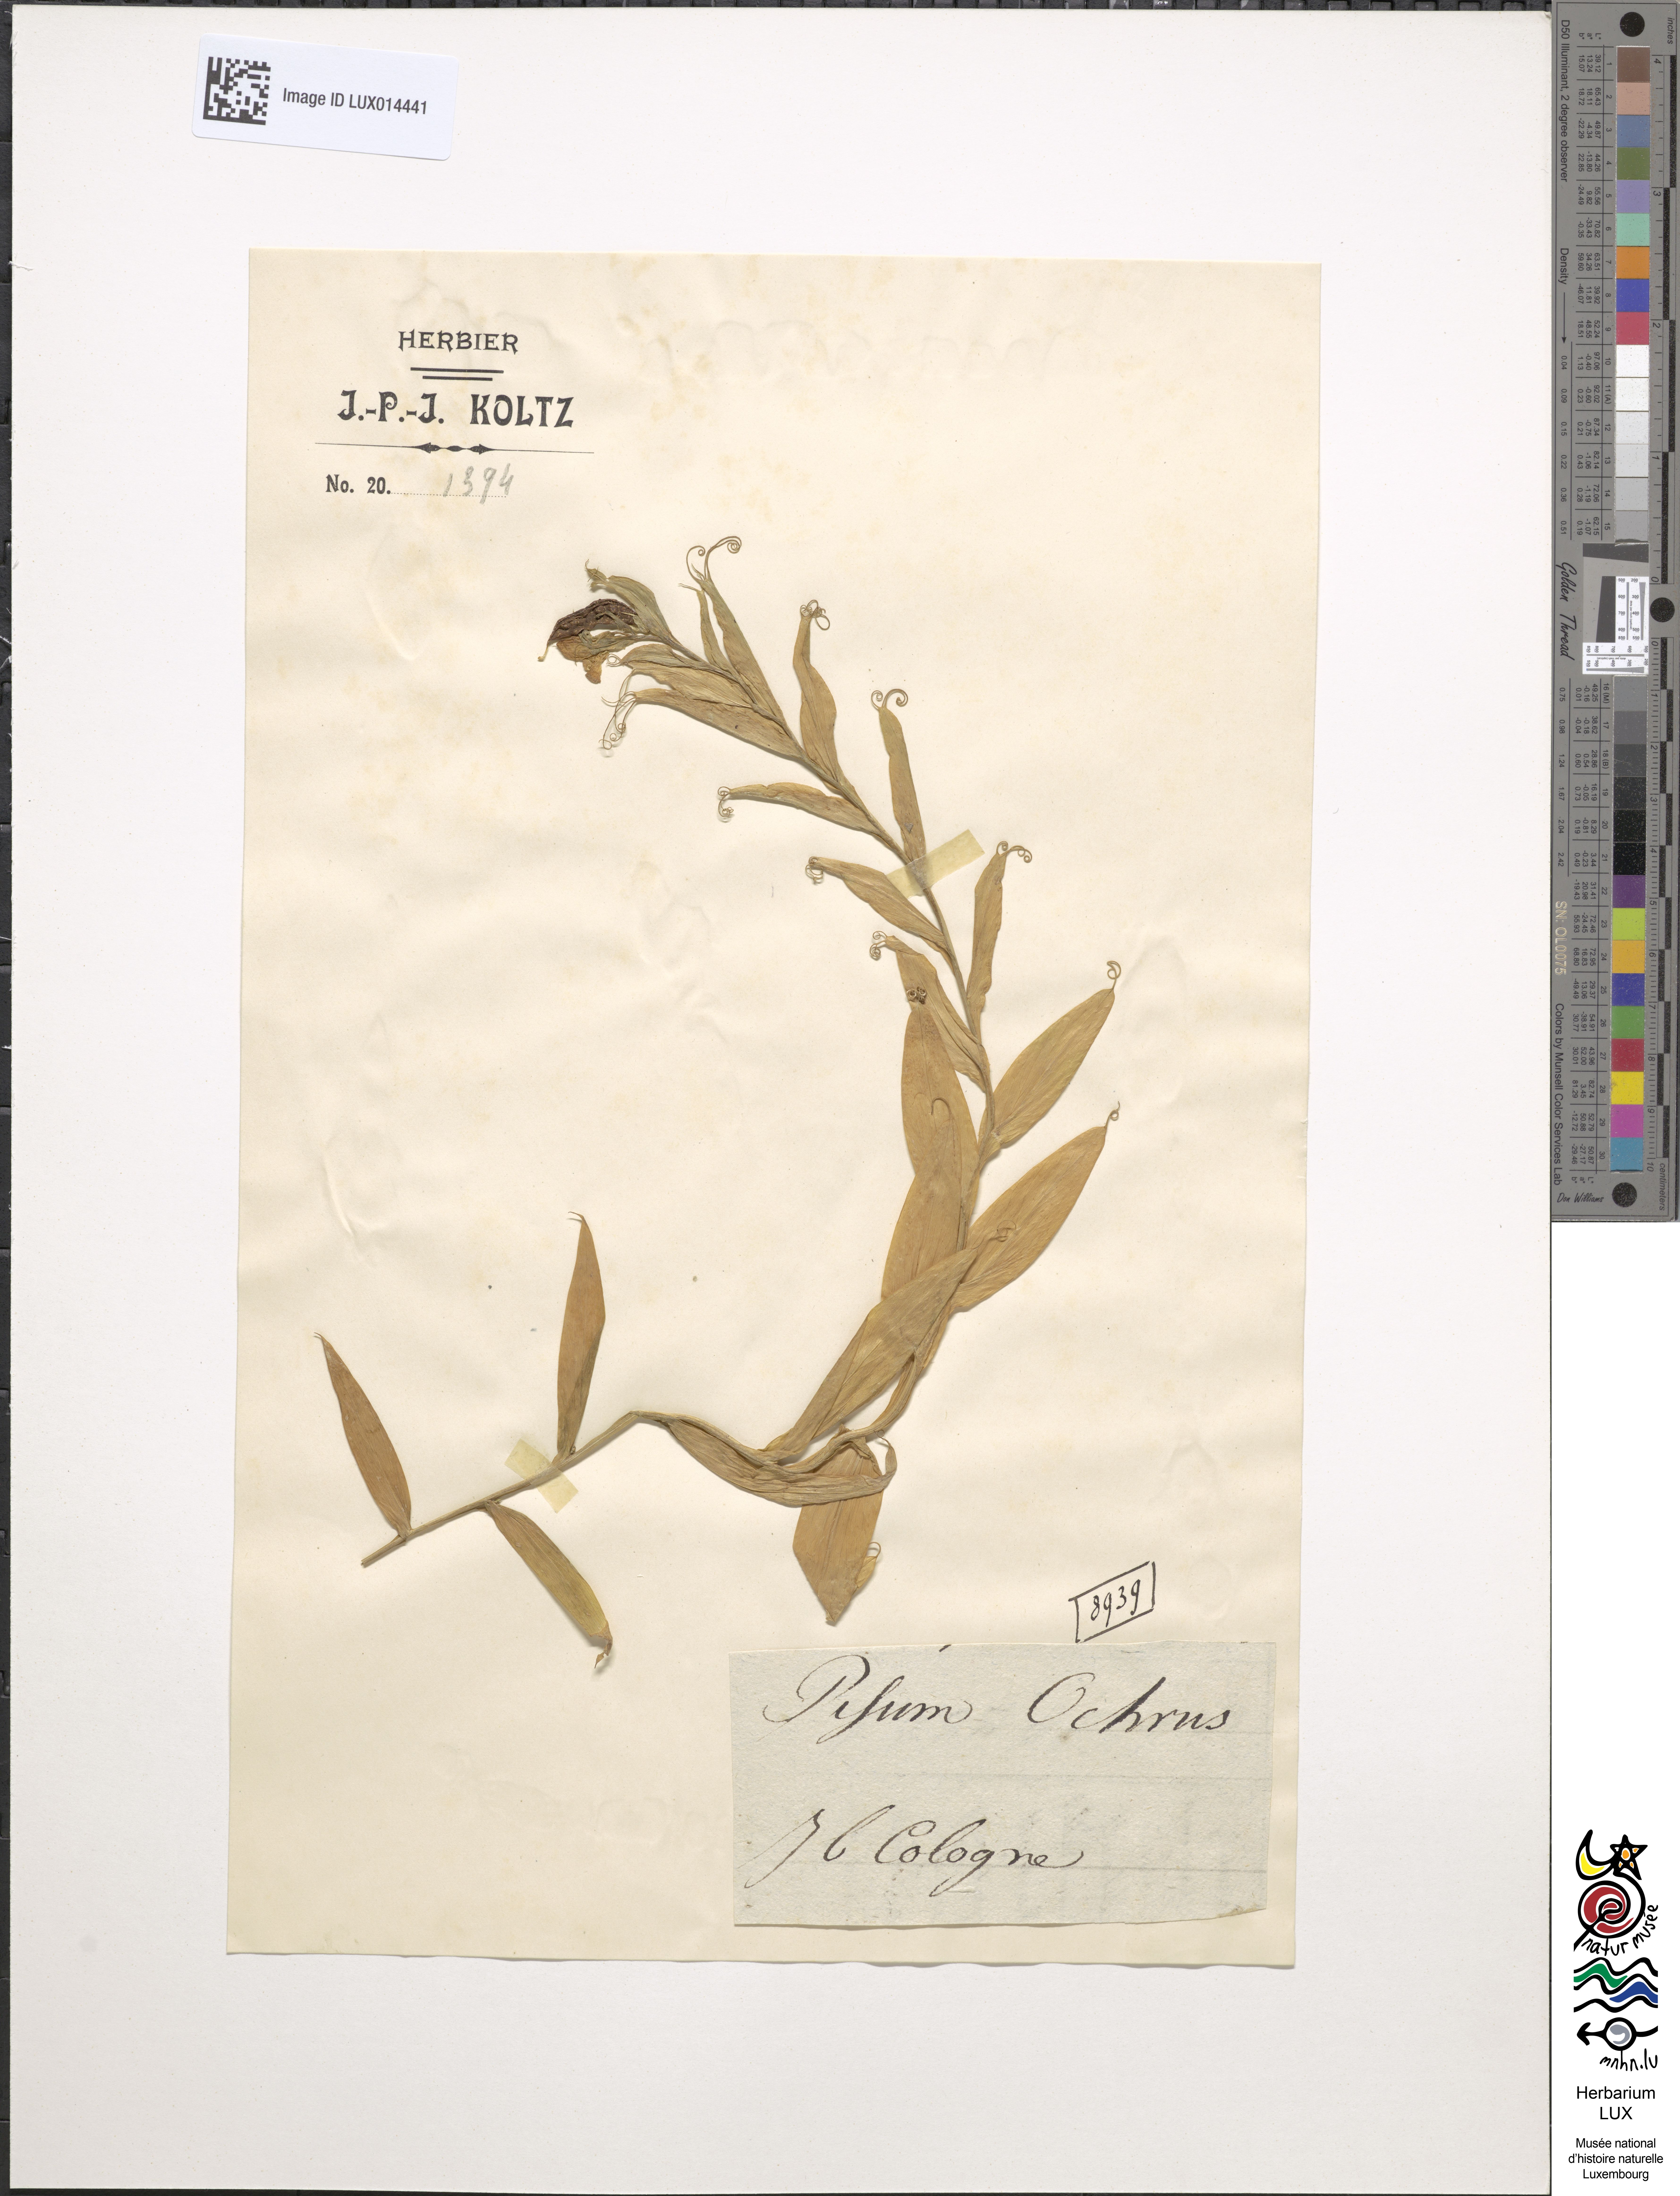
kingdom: Plantae
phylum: Tracheophyta
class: Magnoliopsida
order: Fabales
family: Fabaceae
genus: Lathyrus
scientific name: Lathyrus ochrus
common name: Winged vetchling
